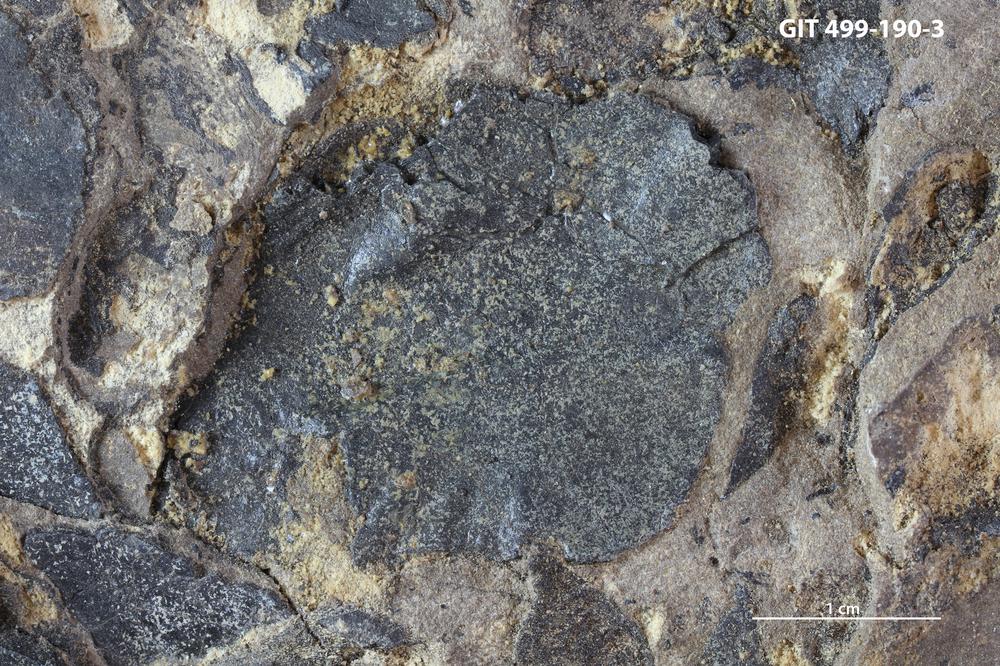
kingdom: Animalia
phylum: Chordata
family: Holoptychiidae
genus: Glyptolepis
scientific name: Glyptolepis
